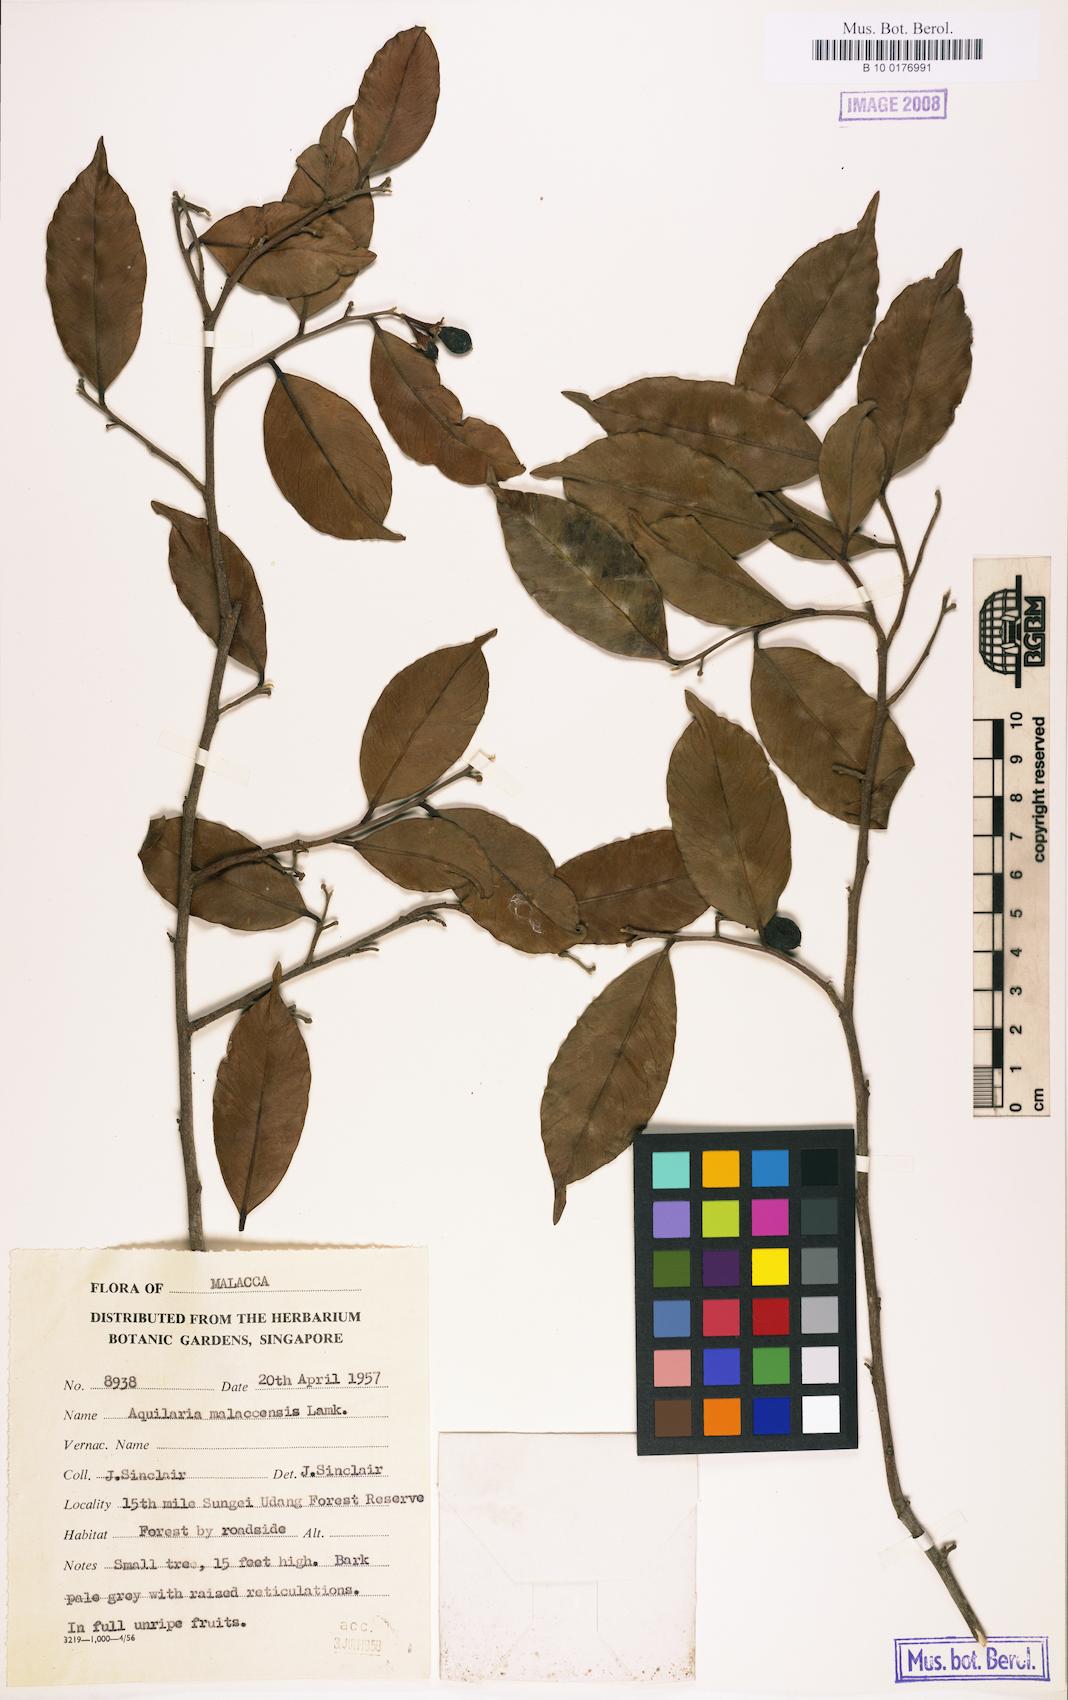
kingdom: Plantae
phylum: Tracheophyta
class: Magnoliopsida
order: Malvales
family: Thymelaeaceae
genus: Aquilaria
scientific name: Aquilaria malaccensis
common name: Agarwood
